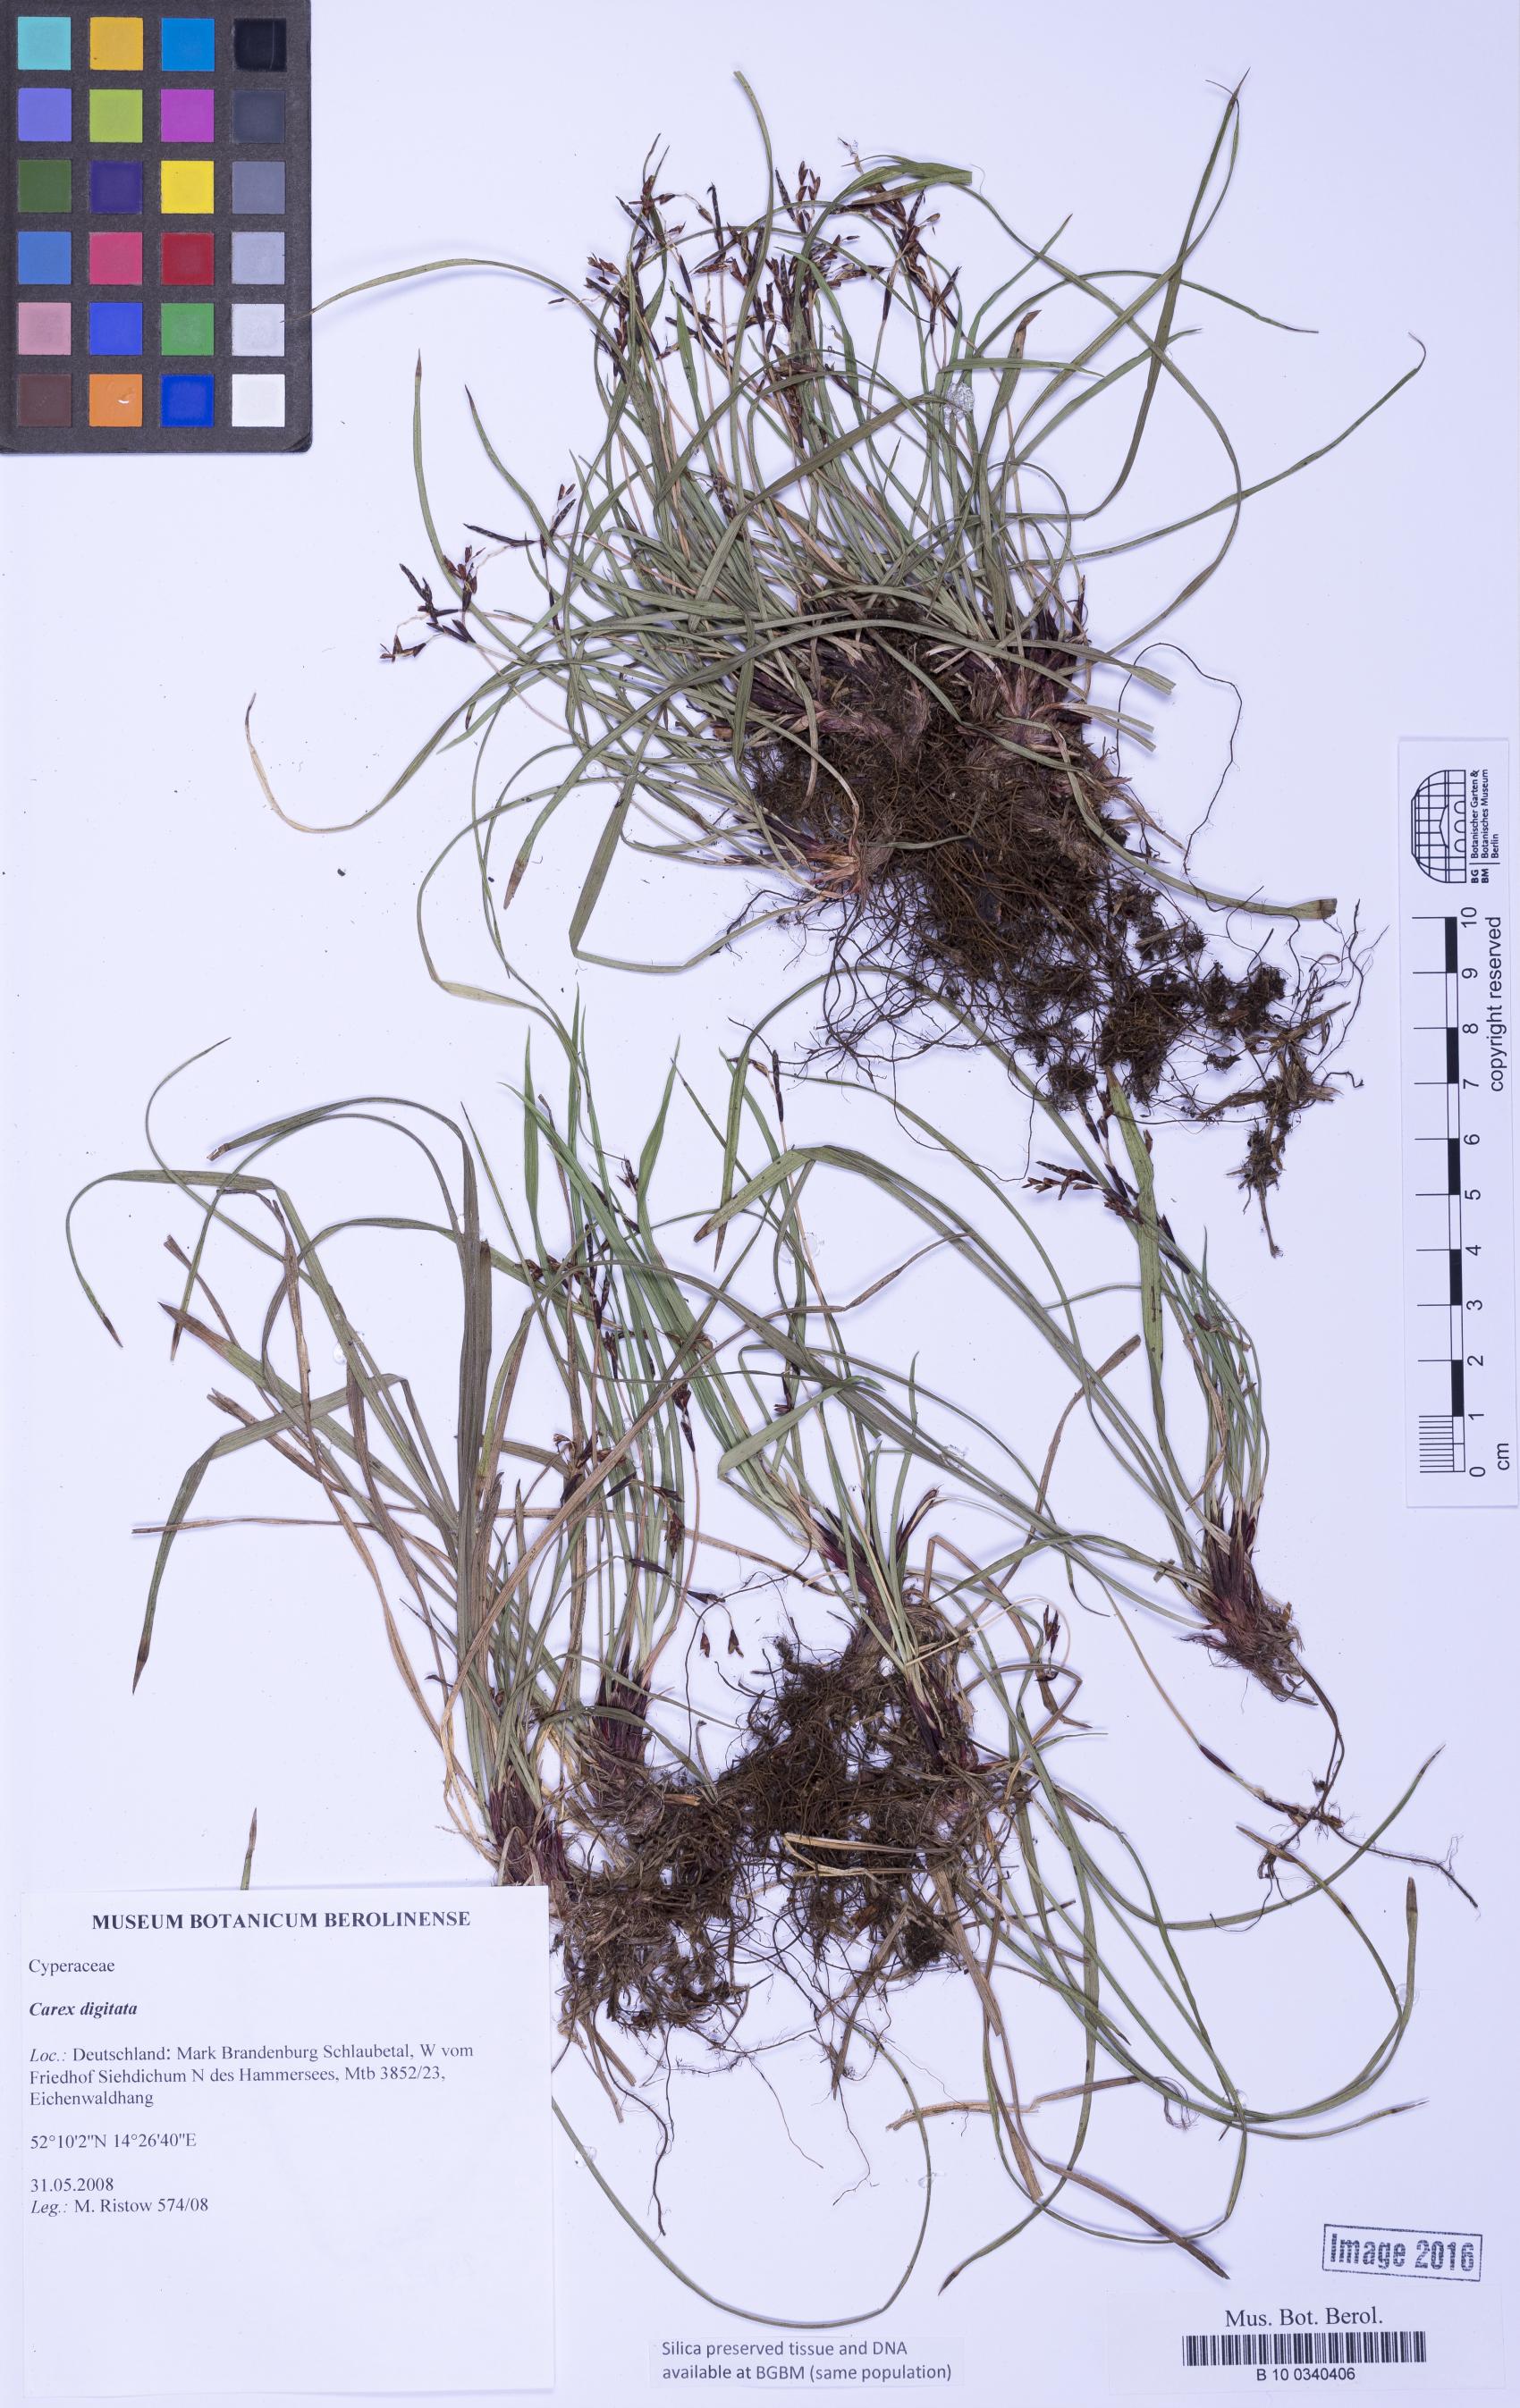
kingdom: Plantae
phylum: Tracheophyta
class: Liliopsida
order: Poales
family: Cyperaceae
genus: Carex
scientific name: Carex digitata
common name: Fingered sedge
